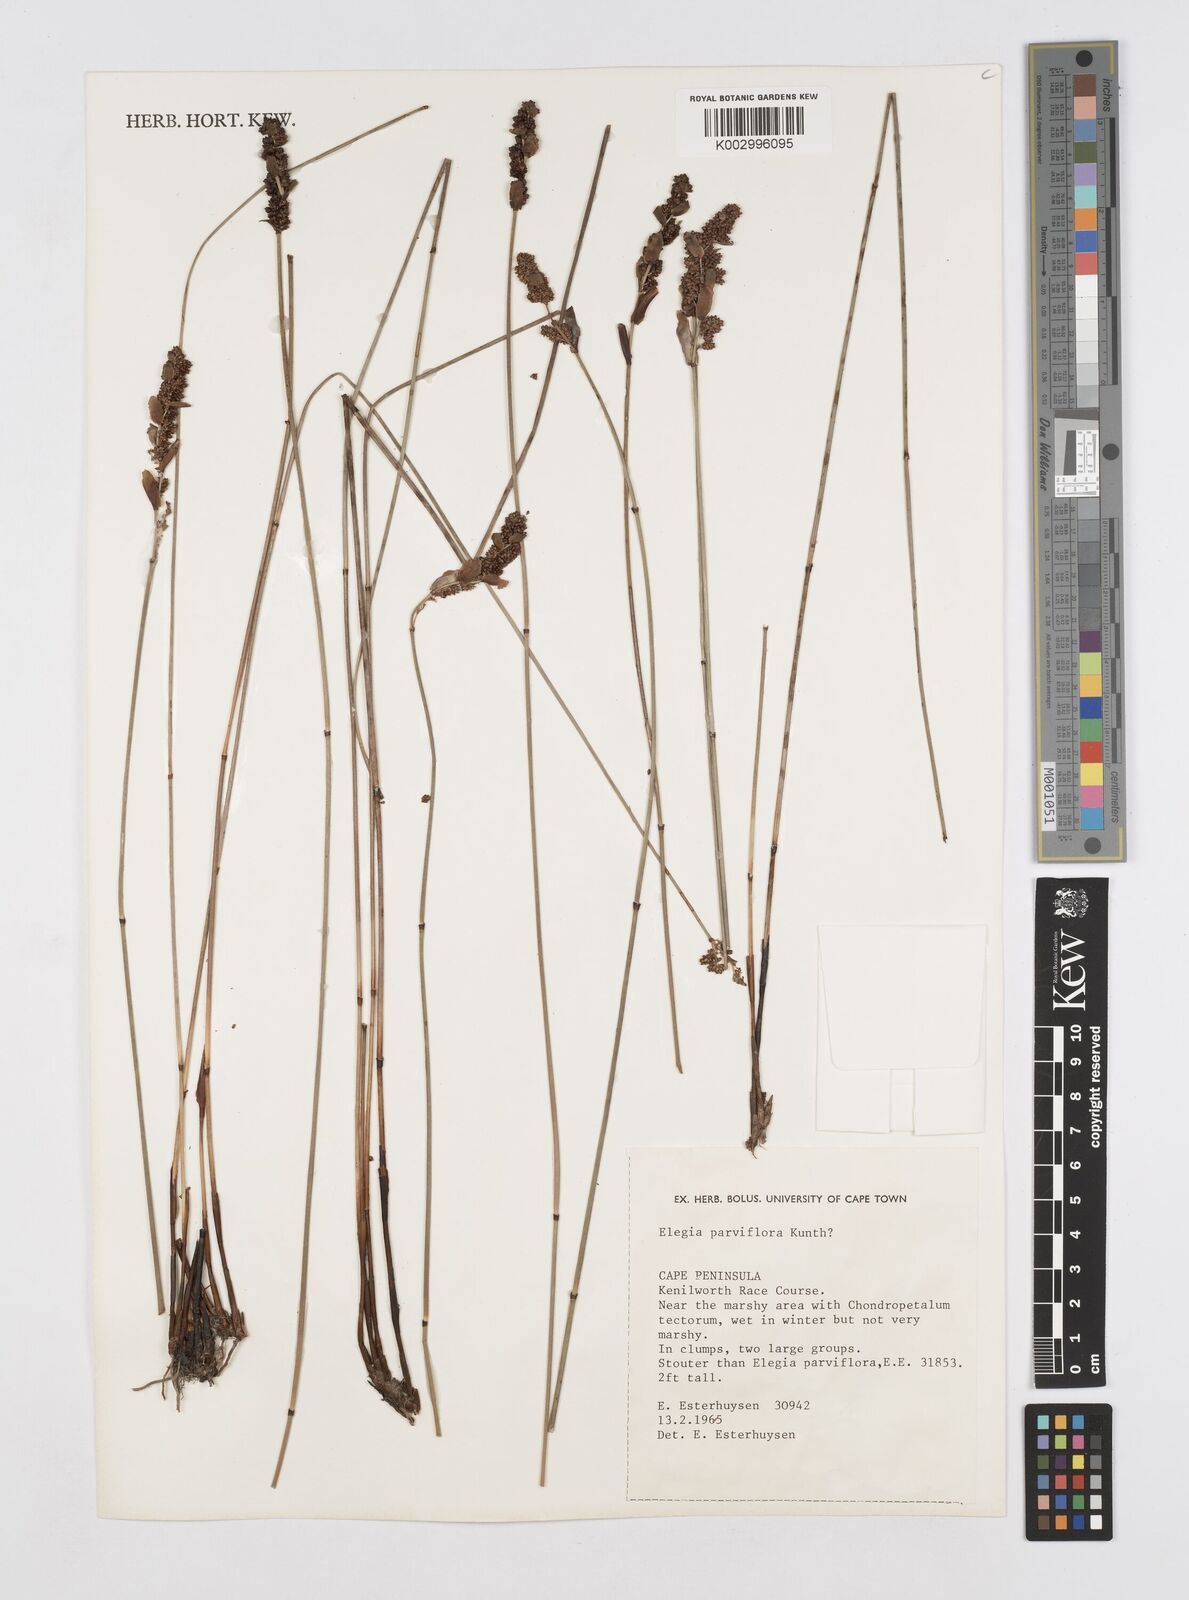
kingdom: Plantae
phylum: Tracheophyta
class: Liliopsida
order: Poales
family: Restionaceae
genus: Cannomois
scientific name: Cannomois parviflora
